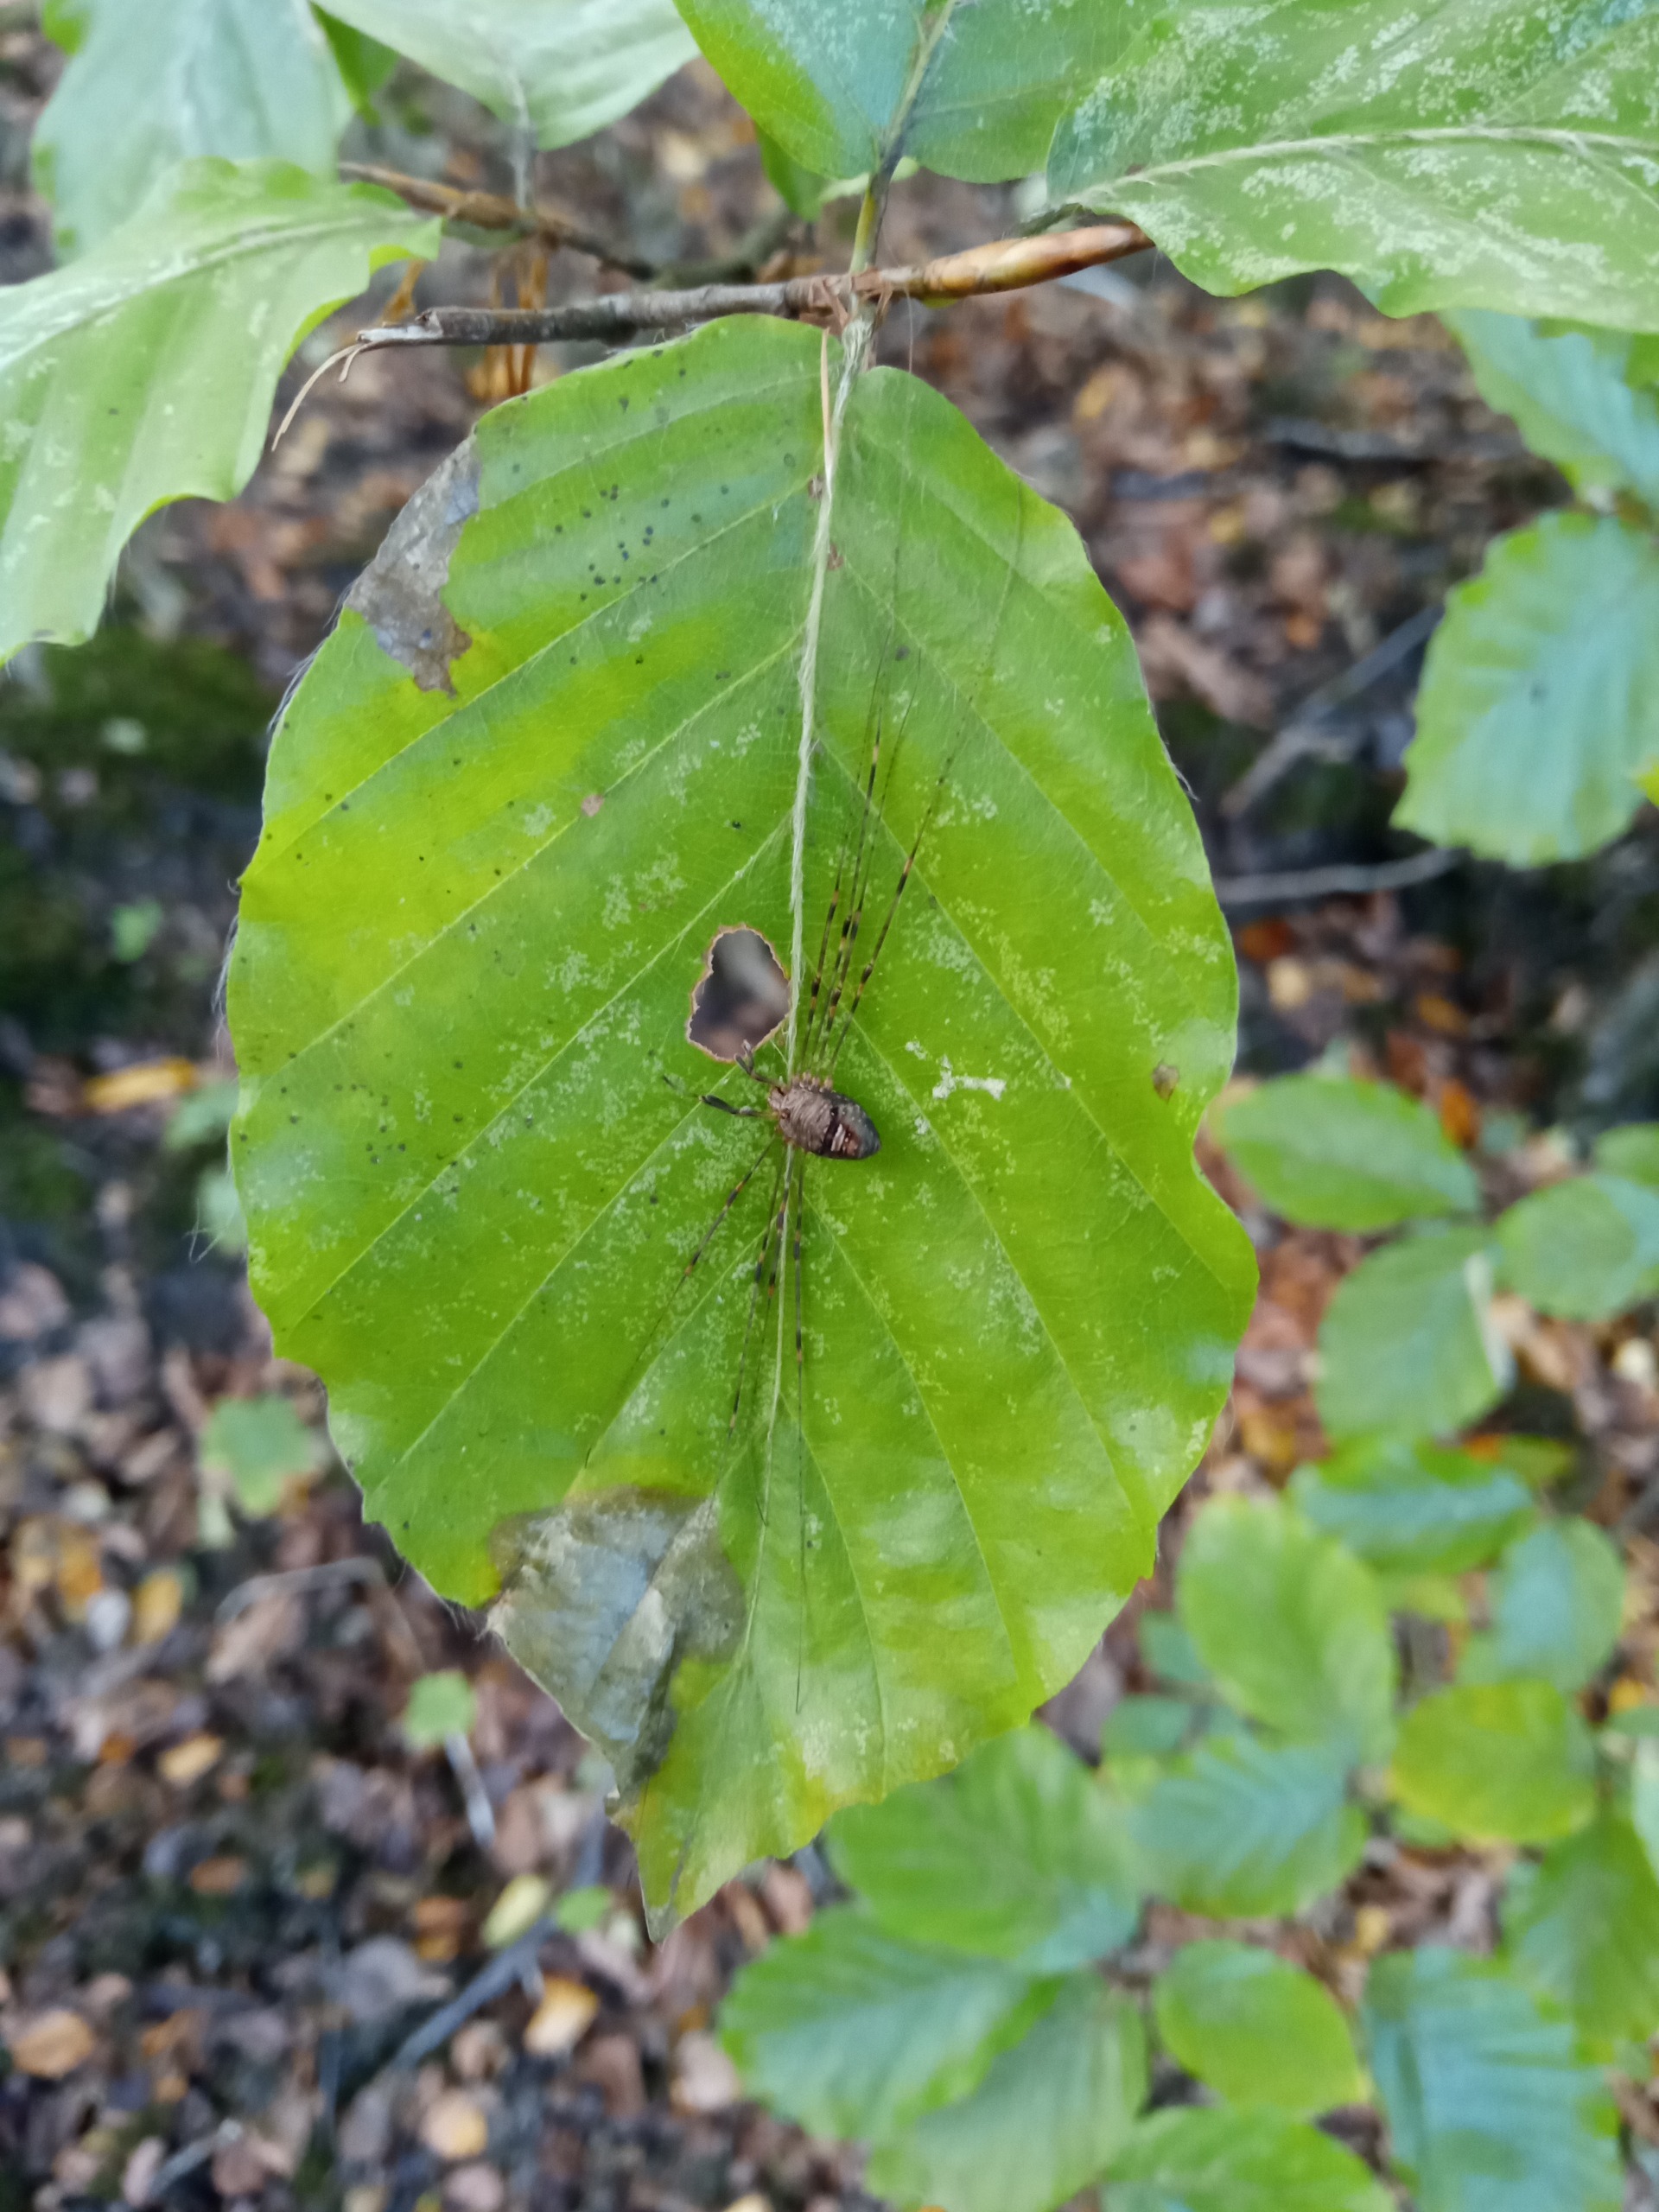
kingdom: Animalia
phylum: Arthropoda
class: Arachnida
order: Opiliones
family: Phalangiidae
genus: Dicranopalpus
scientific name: Dicranopalpus ramosus
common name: Gaffelmejer
